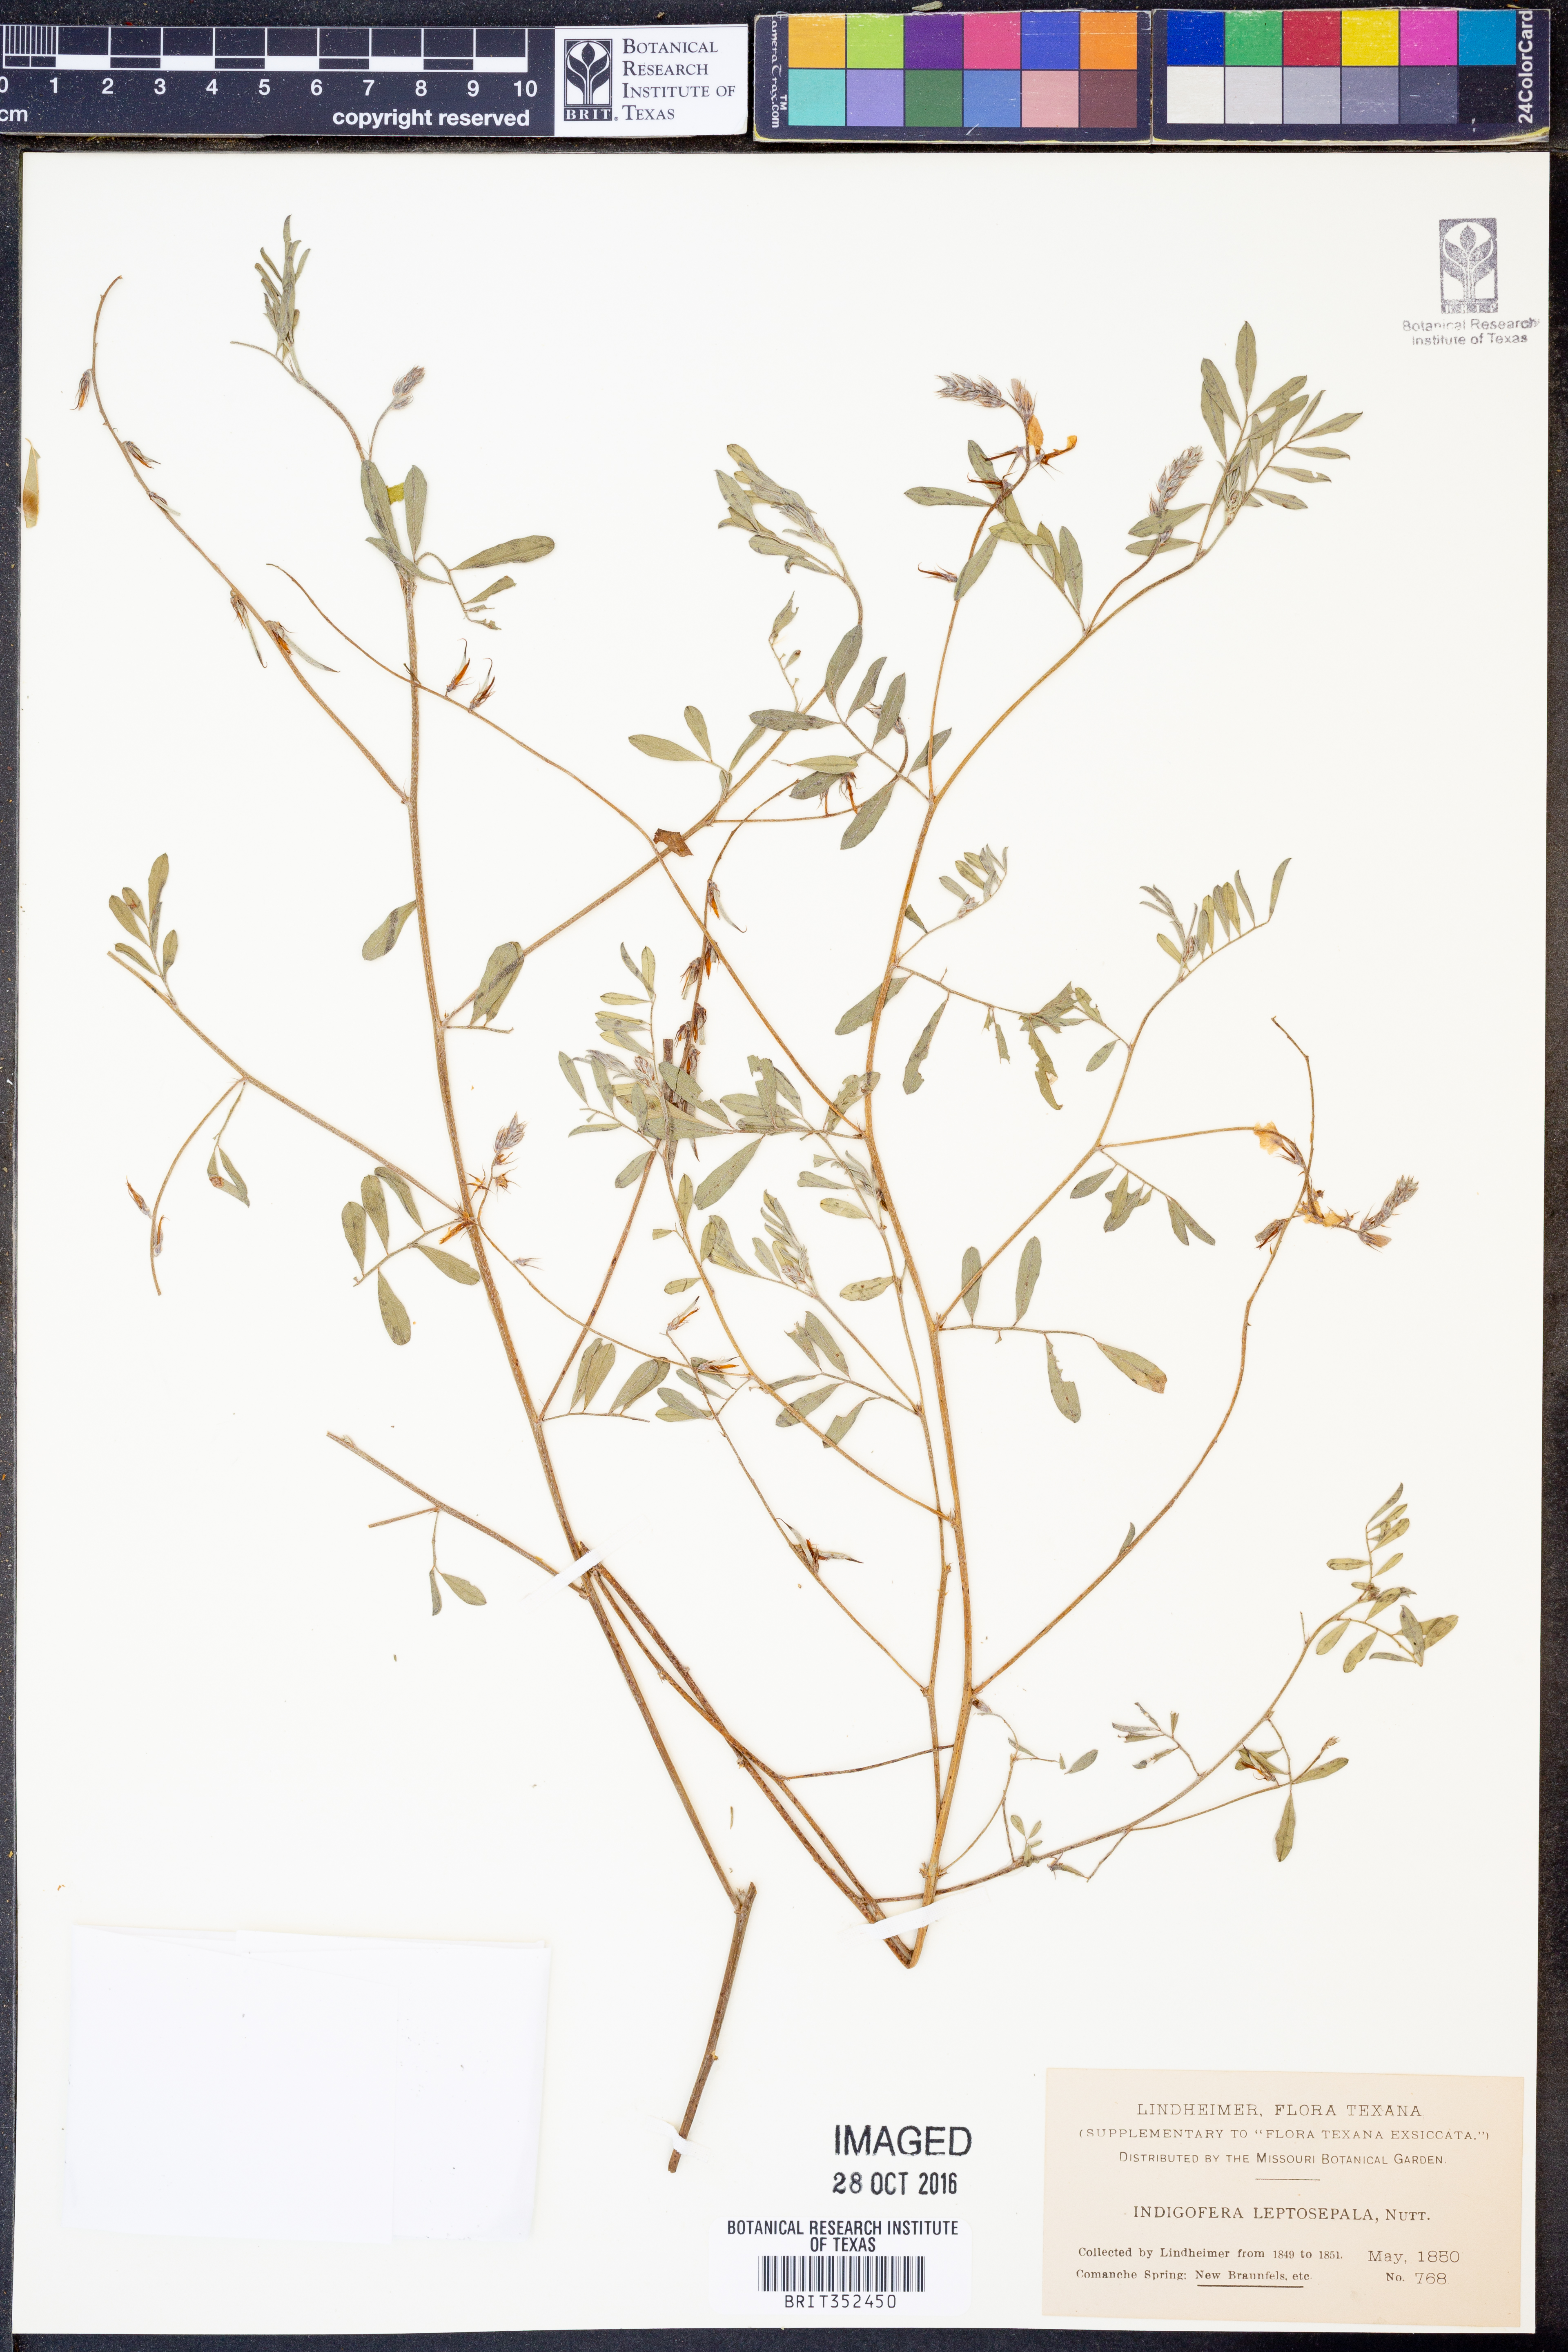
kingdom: Plantae
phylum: Tracheophyta
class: Magnoliopsida
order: Fabales
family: Fabaceae
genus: Indigofera
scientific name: Indigofera argutidens
